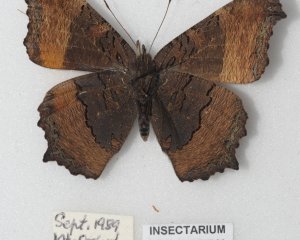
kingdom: Animalia
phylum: Arthropoda
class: Insecta
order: Lepidoptera
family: Nymphalidae
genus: Aglais
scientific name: Aglais milberti
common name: Milbert's Tortoiseshell
